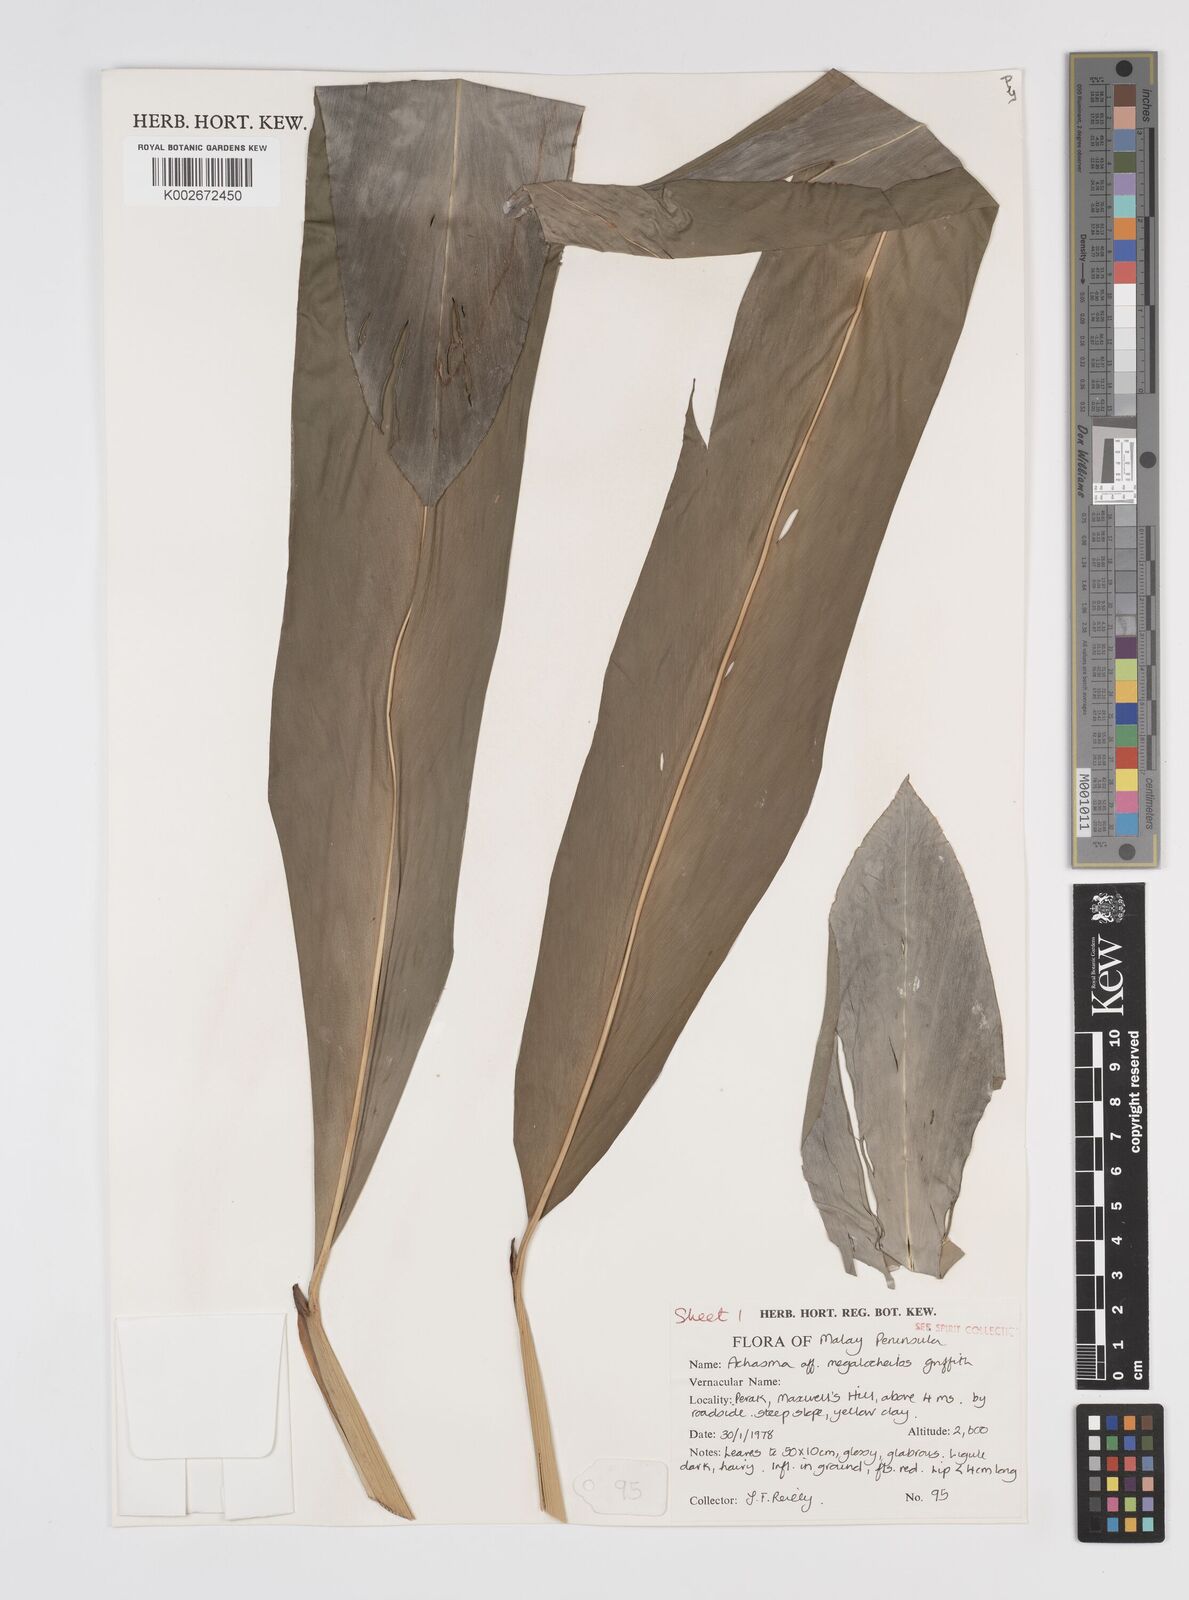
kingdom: Plantae
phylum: Tracheophyta
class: Liliopsida
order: Zingiberales
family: Zingiberaceae
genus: Etlingera
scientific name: Etlingera littoralis
